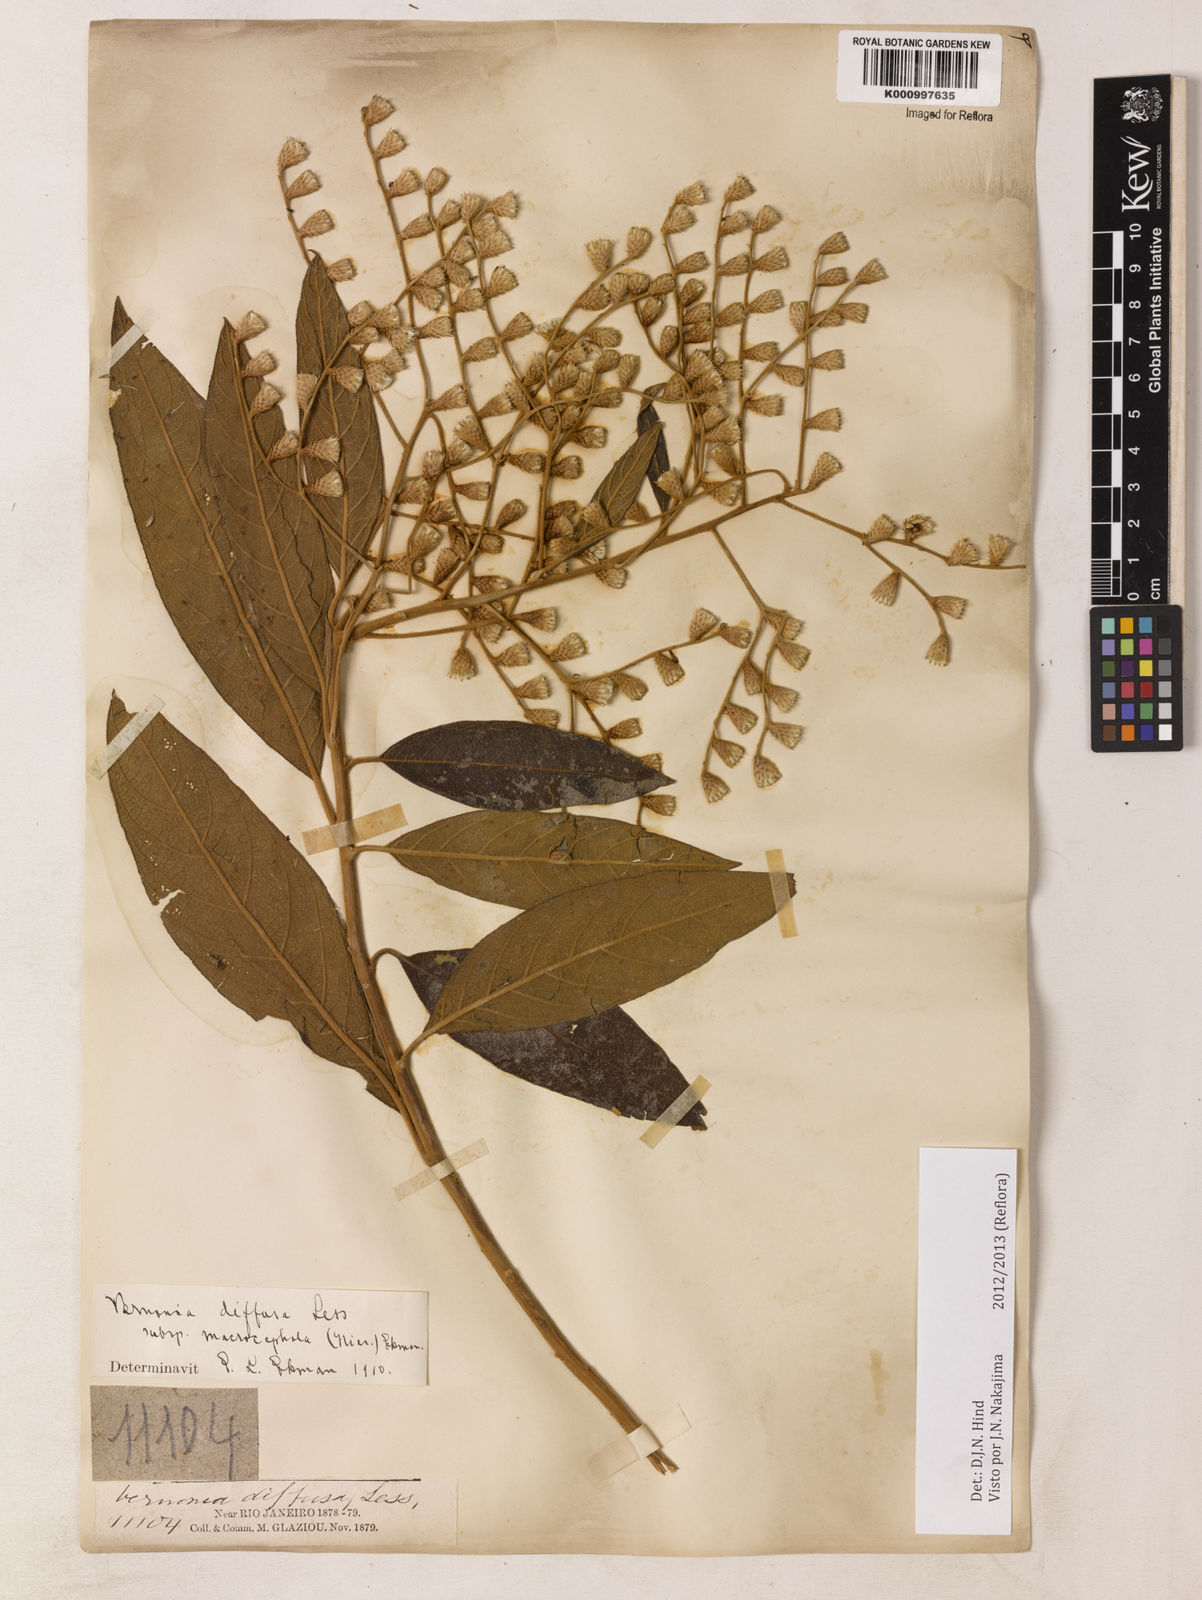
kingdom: Plantae
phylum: Tracheophyta
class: Magnoliopsida
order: Asterales
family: Asteraceae
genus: Vernonanthura
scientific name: Vernonanthura divaricata
